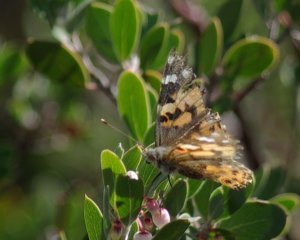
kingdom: Animalia
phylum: Arthropoda
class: Insecta
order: Lepidoptera
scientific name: Lepidoptera
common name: Butterflies
